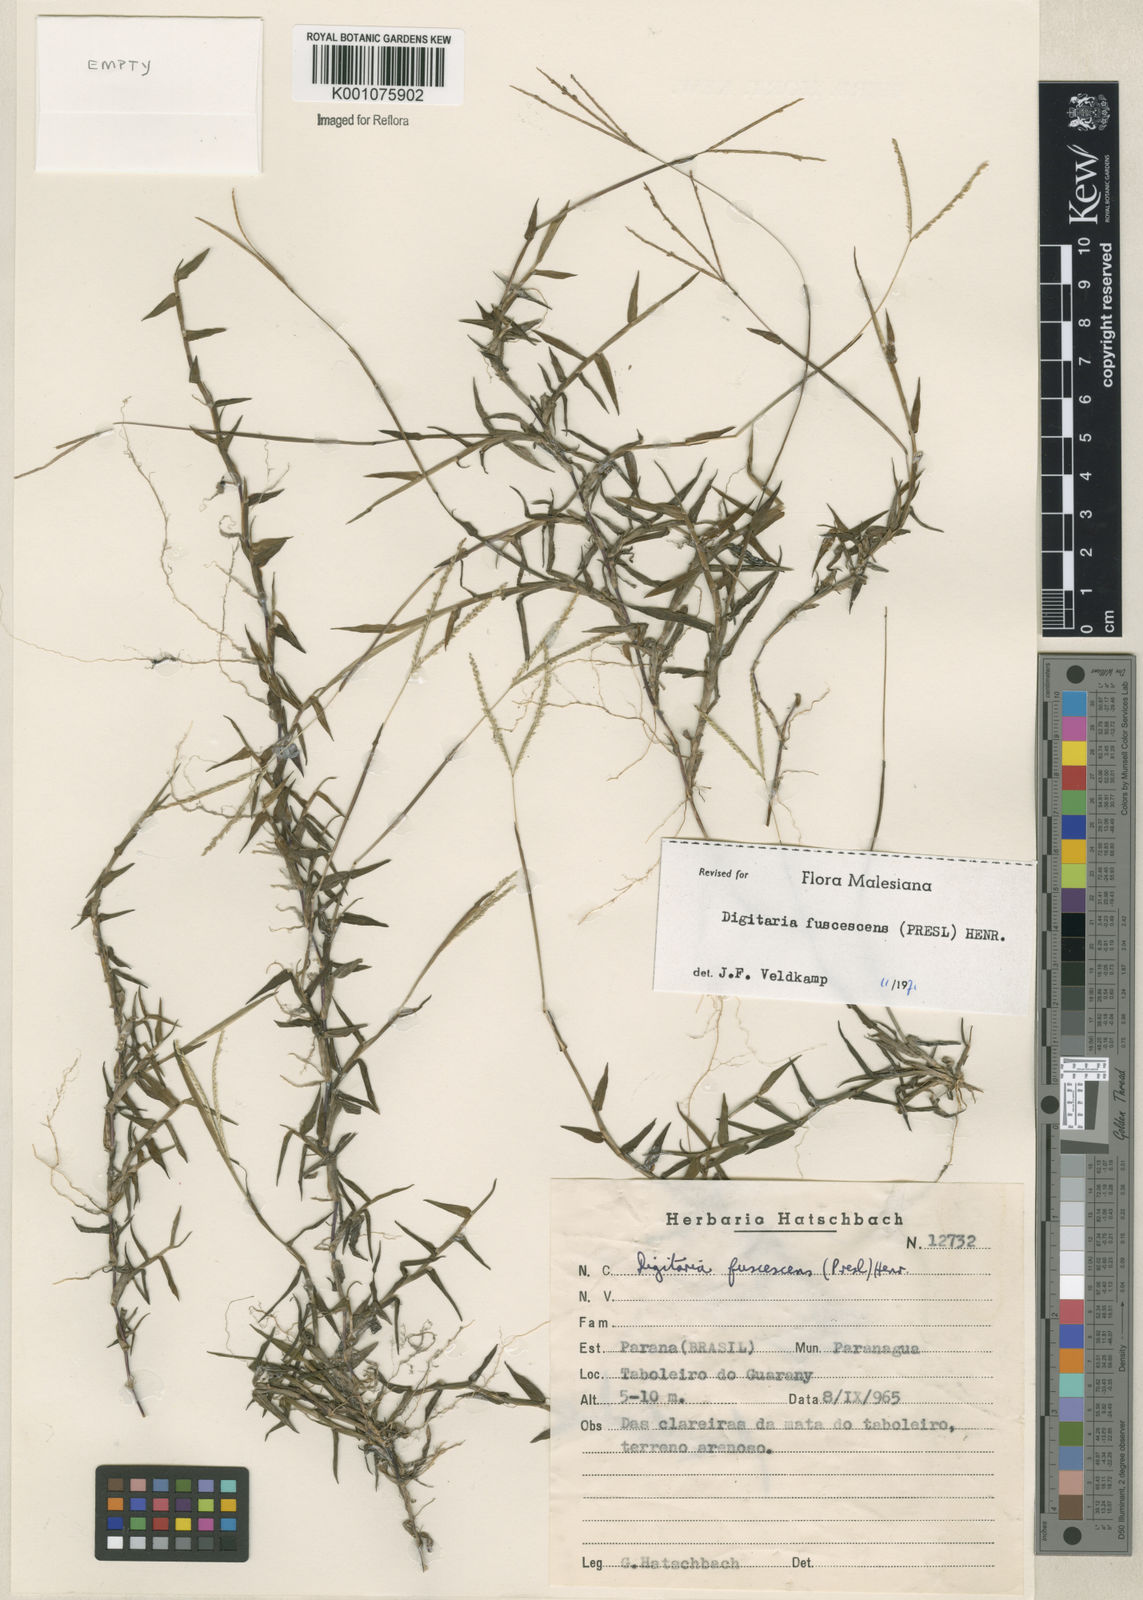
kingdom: Plantae
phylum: Tracheophyta
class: Liliopsida
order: Poales
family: Poaceae
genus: Digitaria
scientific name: Digitaria fuscescens
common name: Yellow crabgrass
